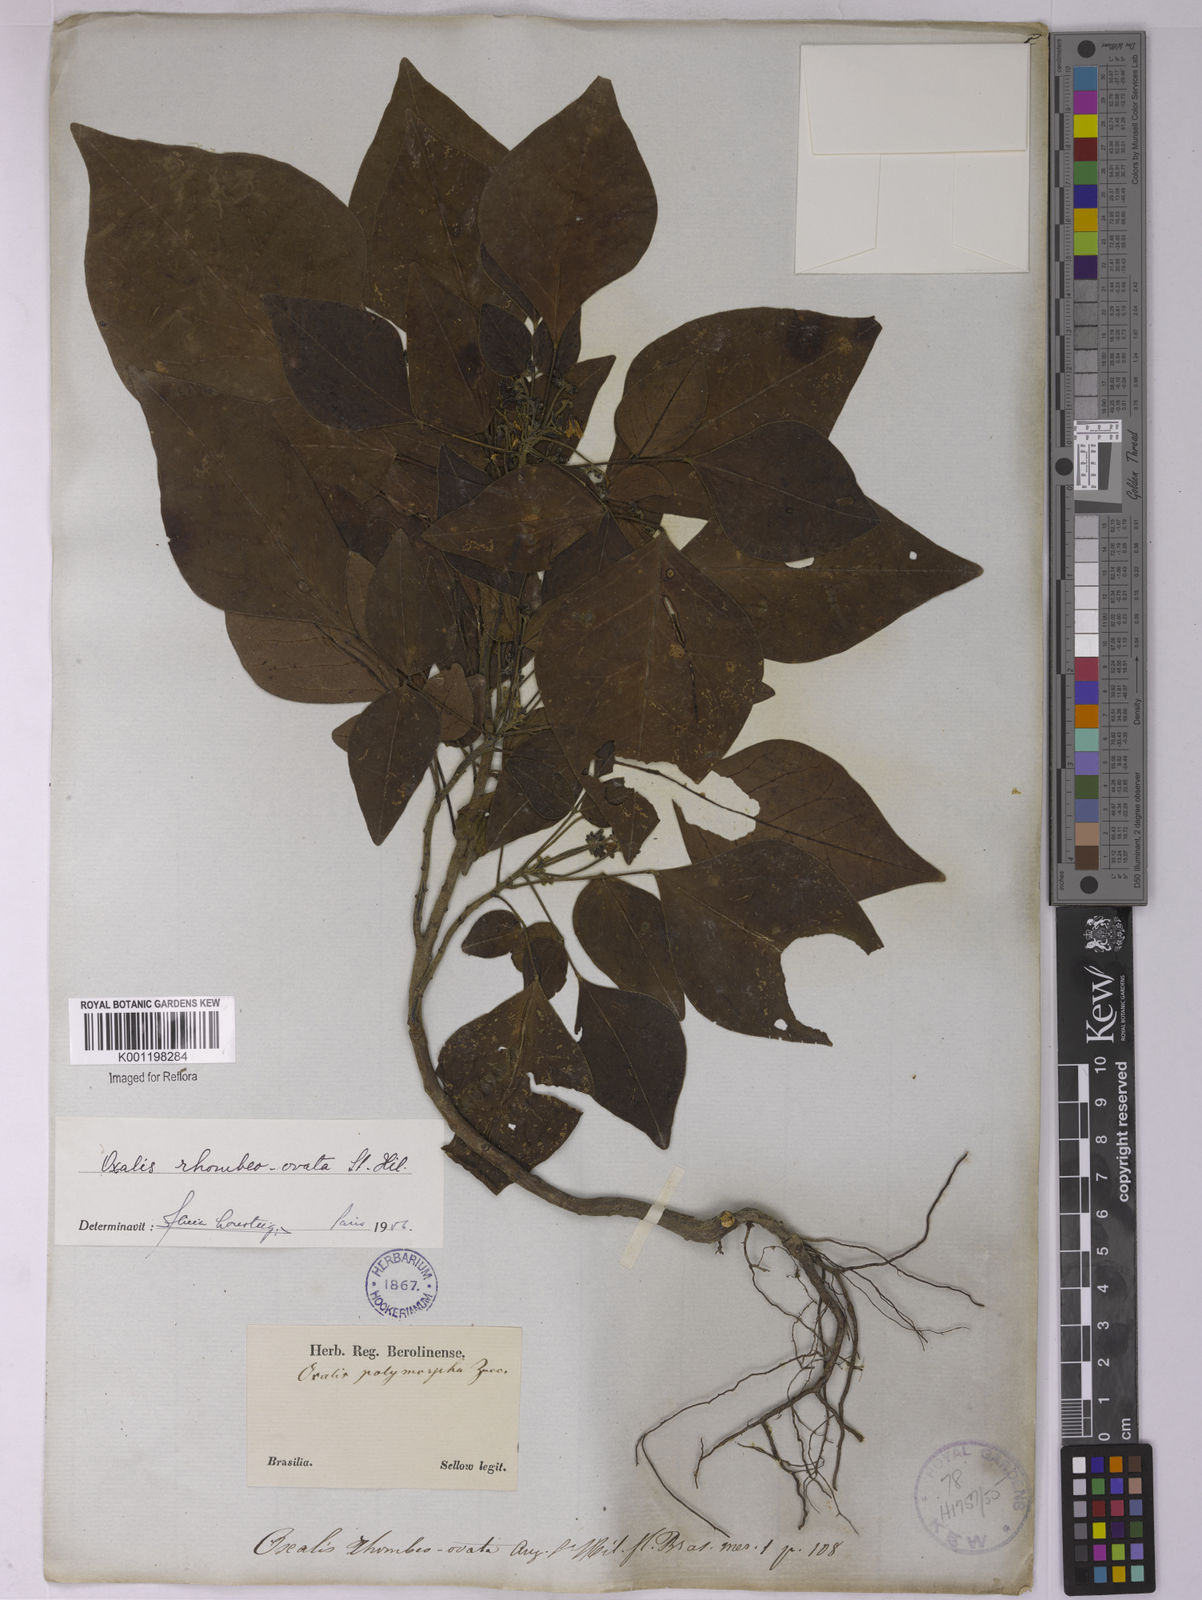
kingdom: Plantae
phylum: Tracheophyta
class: Magnoliopsida
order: Oxalidales
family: Oxalidaceae
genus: Oxalis
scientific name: Oxalis rhombeo-ovata
